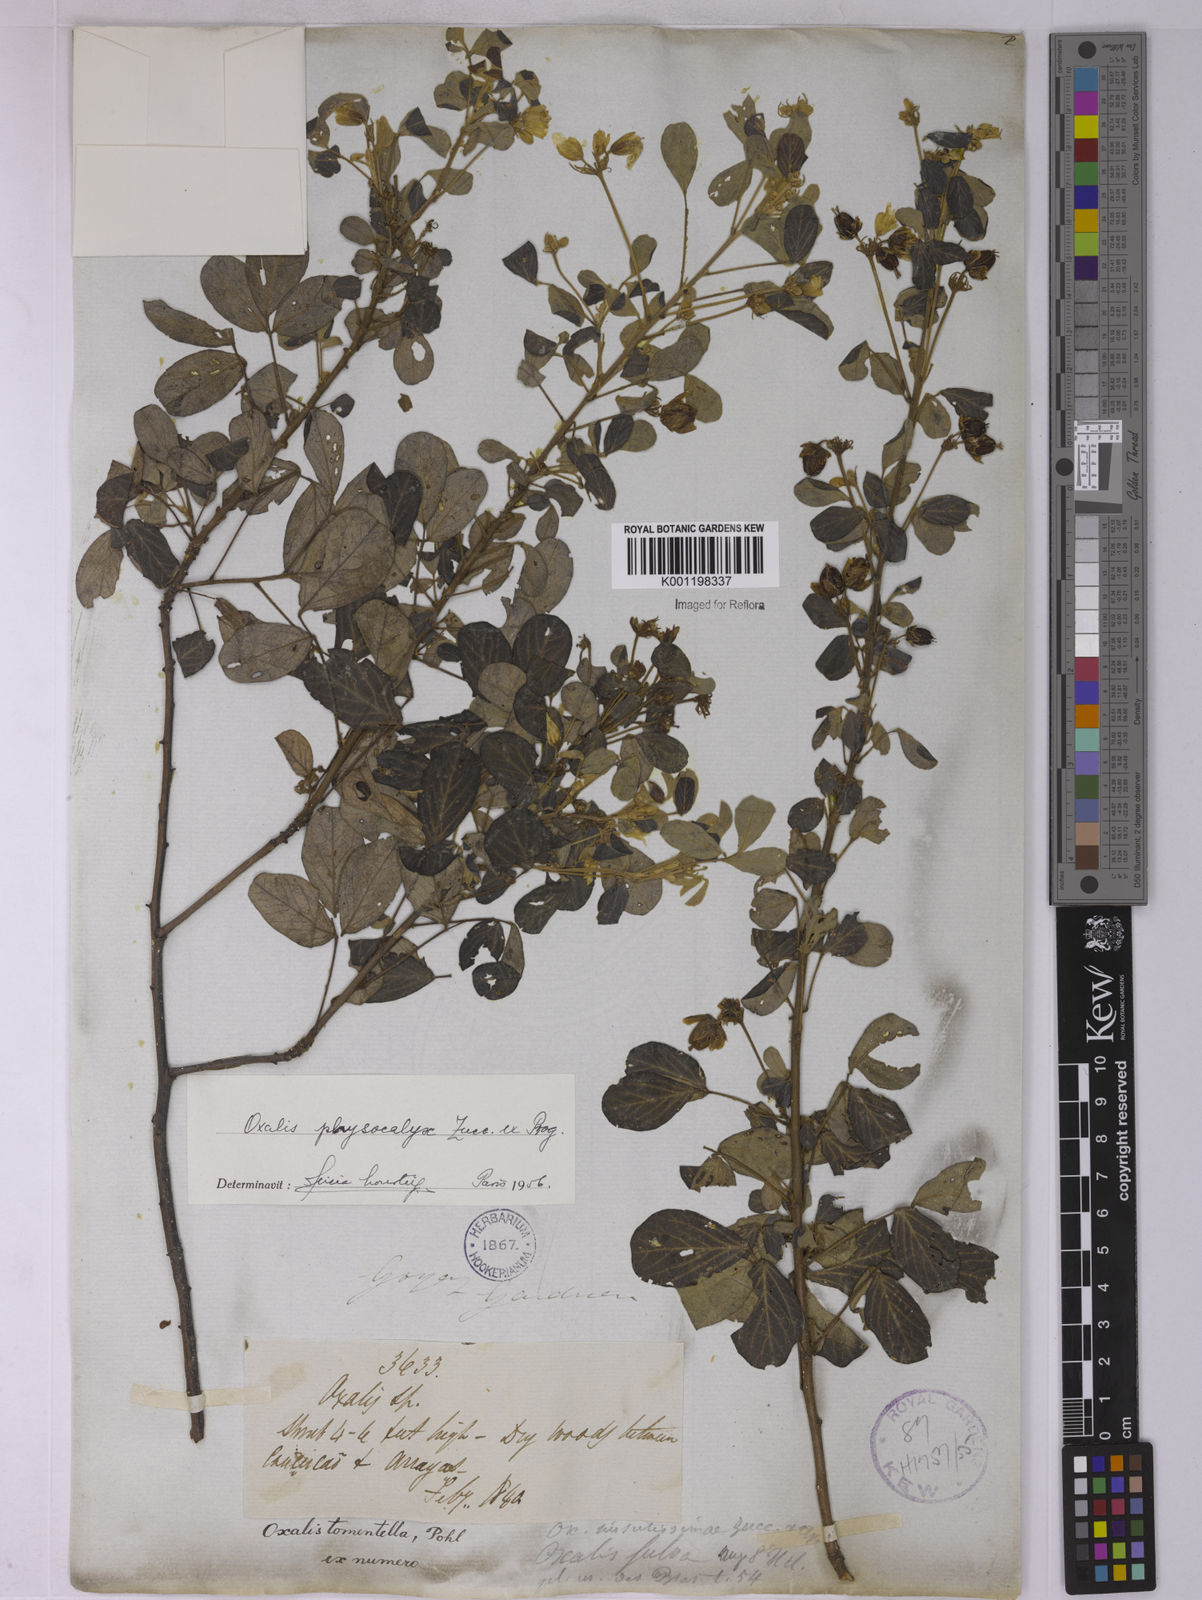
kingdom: Plantae
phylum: Tracheophyta
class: Magnoliopsida
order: Oxalidales
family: Oxalidaceae
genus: Oxalis
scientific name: Oxalis physocalyx
